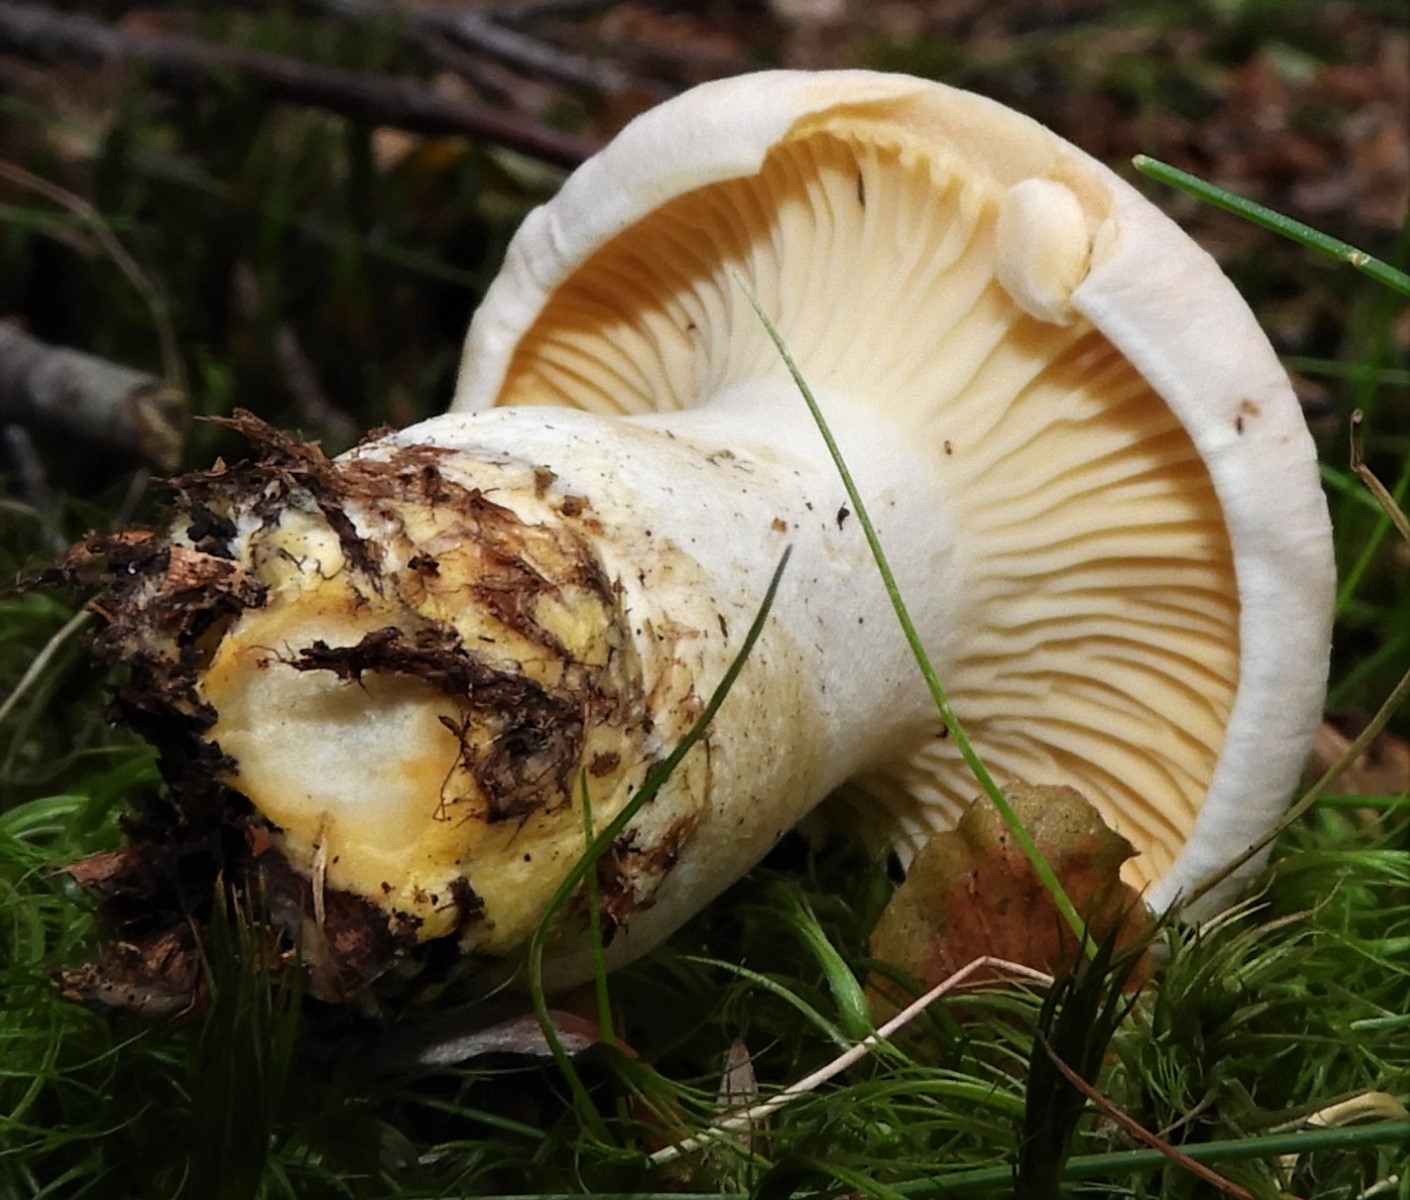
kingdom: Fungi
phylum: Basidiomycota
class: Agaricomycetes
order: Cantharellales
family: Hydnaceae
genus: Cantharellus
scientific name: Cantharellus pallens
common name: bleg kantarel
